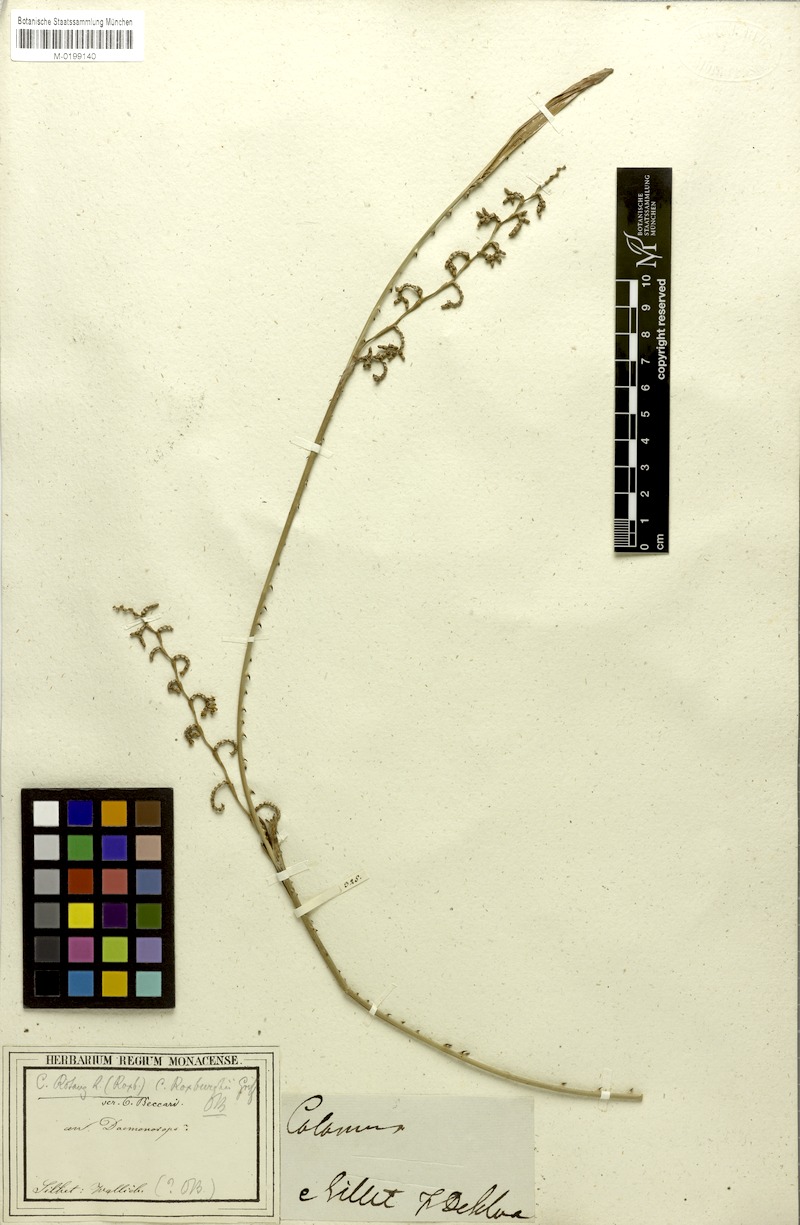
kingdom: Plantae
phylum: Tracheophyta
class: Liliopsida
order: Arecales
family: Arecaceae
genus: Calamus
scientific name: Calamus rotang
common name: Rattan cane
